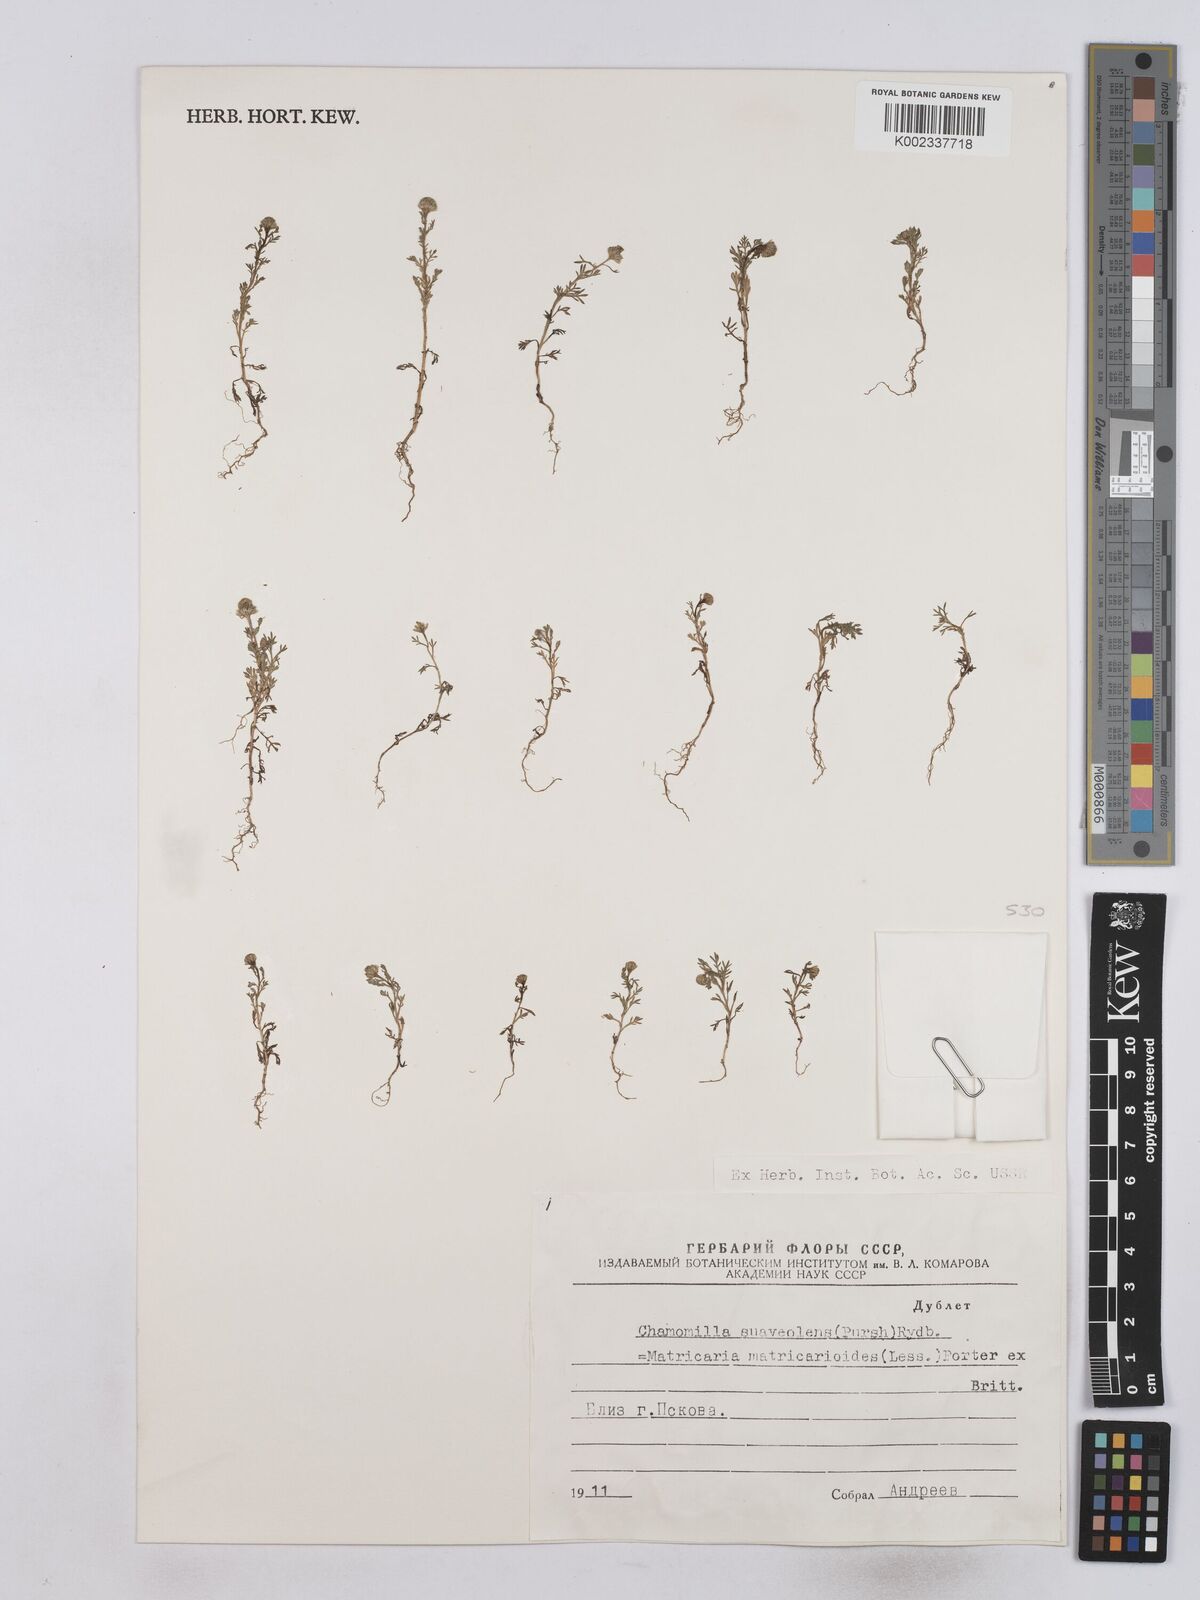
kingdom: Plantae
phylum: Tracheophyta
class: Magnoliopsida
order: Asterales
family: Asteraceae
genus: Matricaria
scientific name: Matricaria discoidea
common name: Disc mayweed
